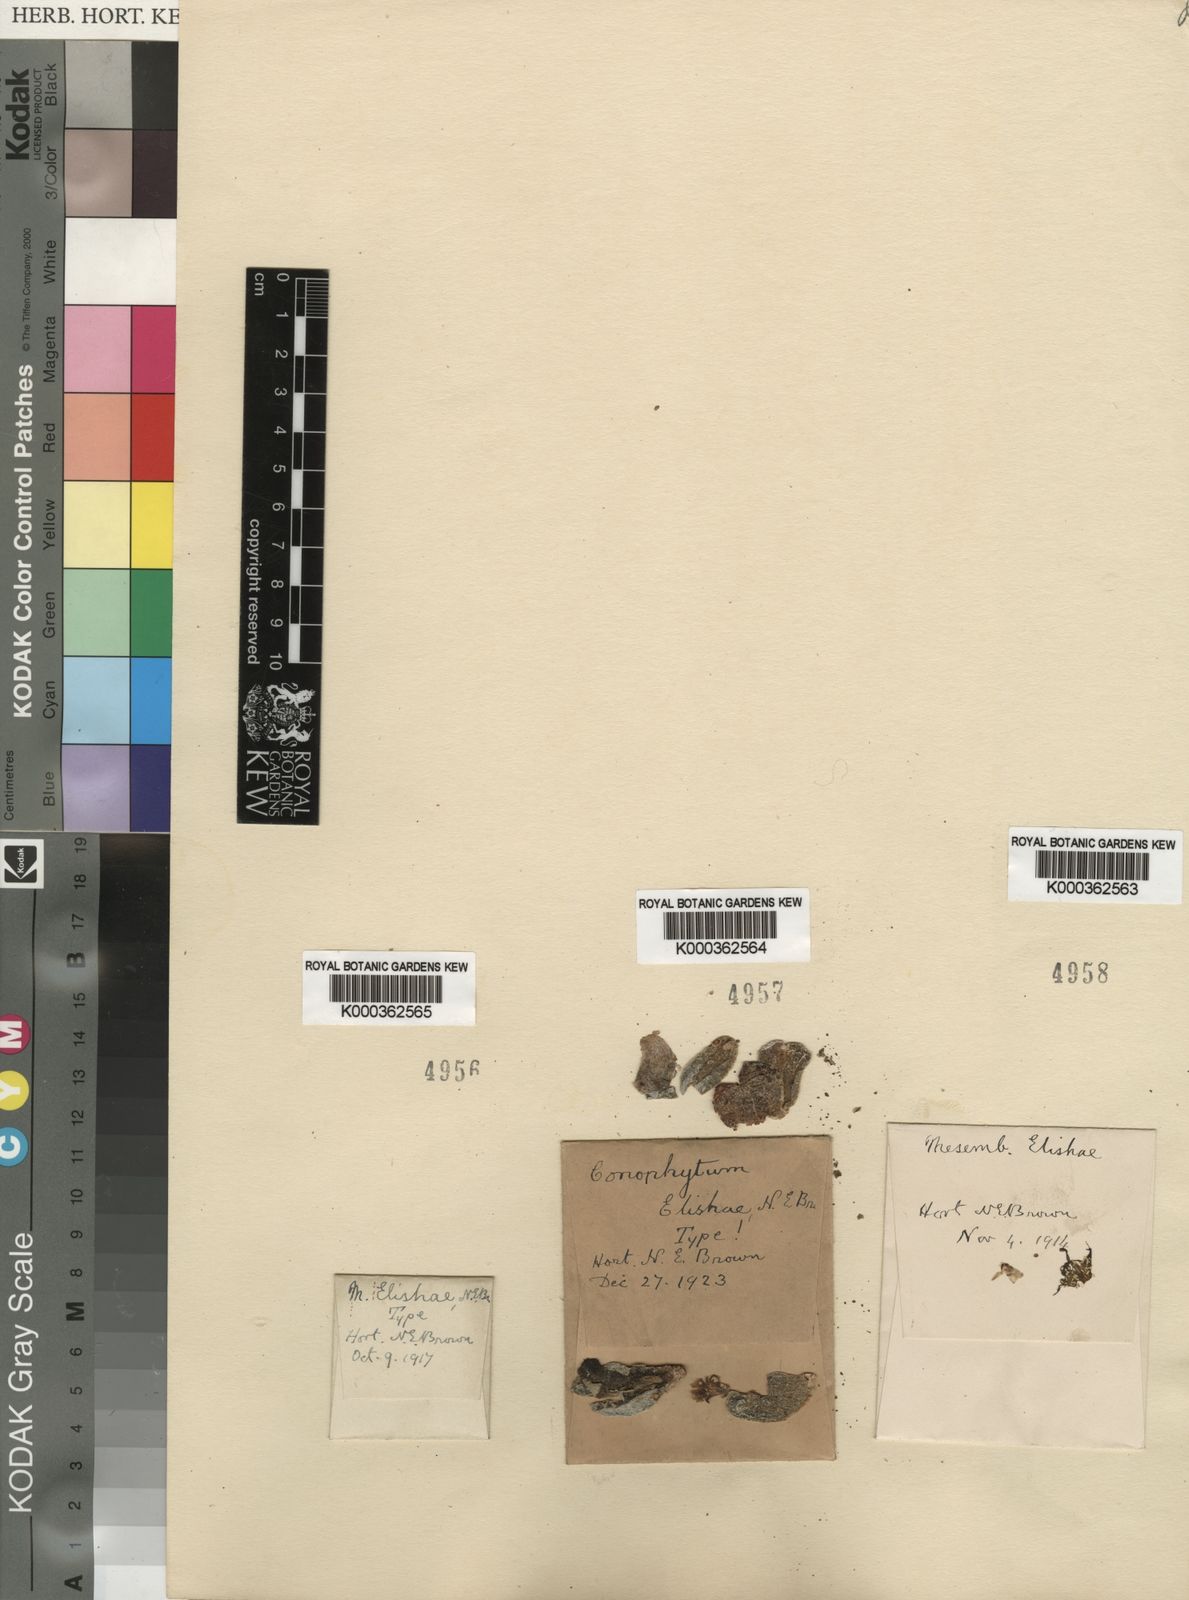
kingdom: Plantae
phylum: Tracheophyta
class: Magnoliopsida
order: Caryophyllales
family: Aizoaceae
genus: Conophytum
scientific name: Conophytum bilobum
